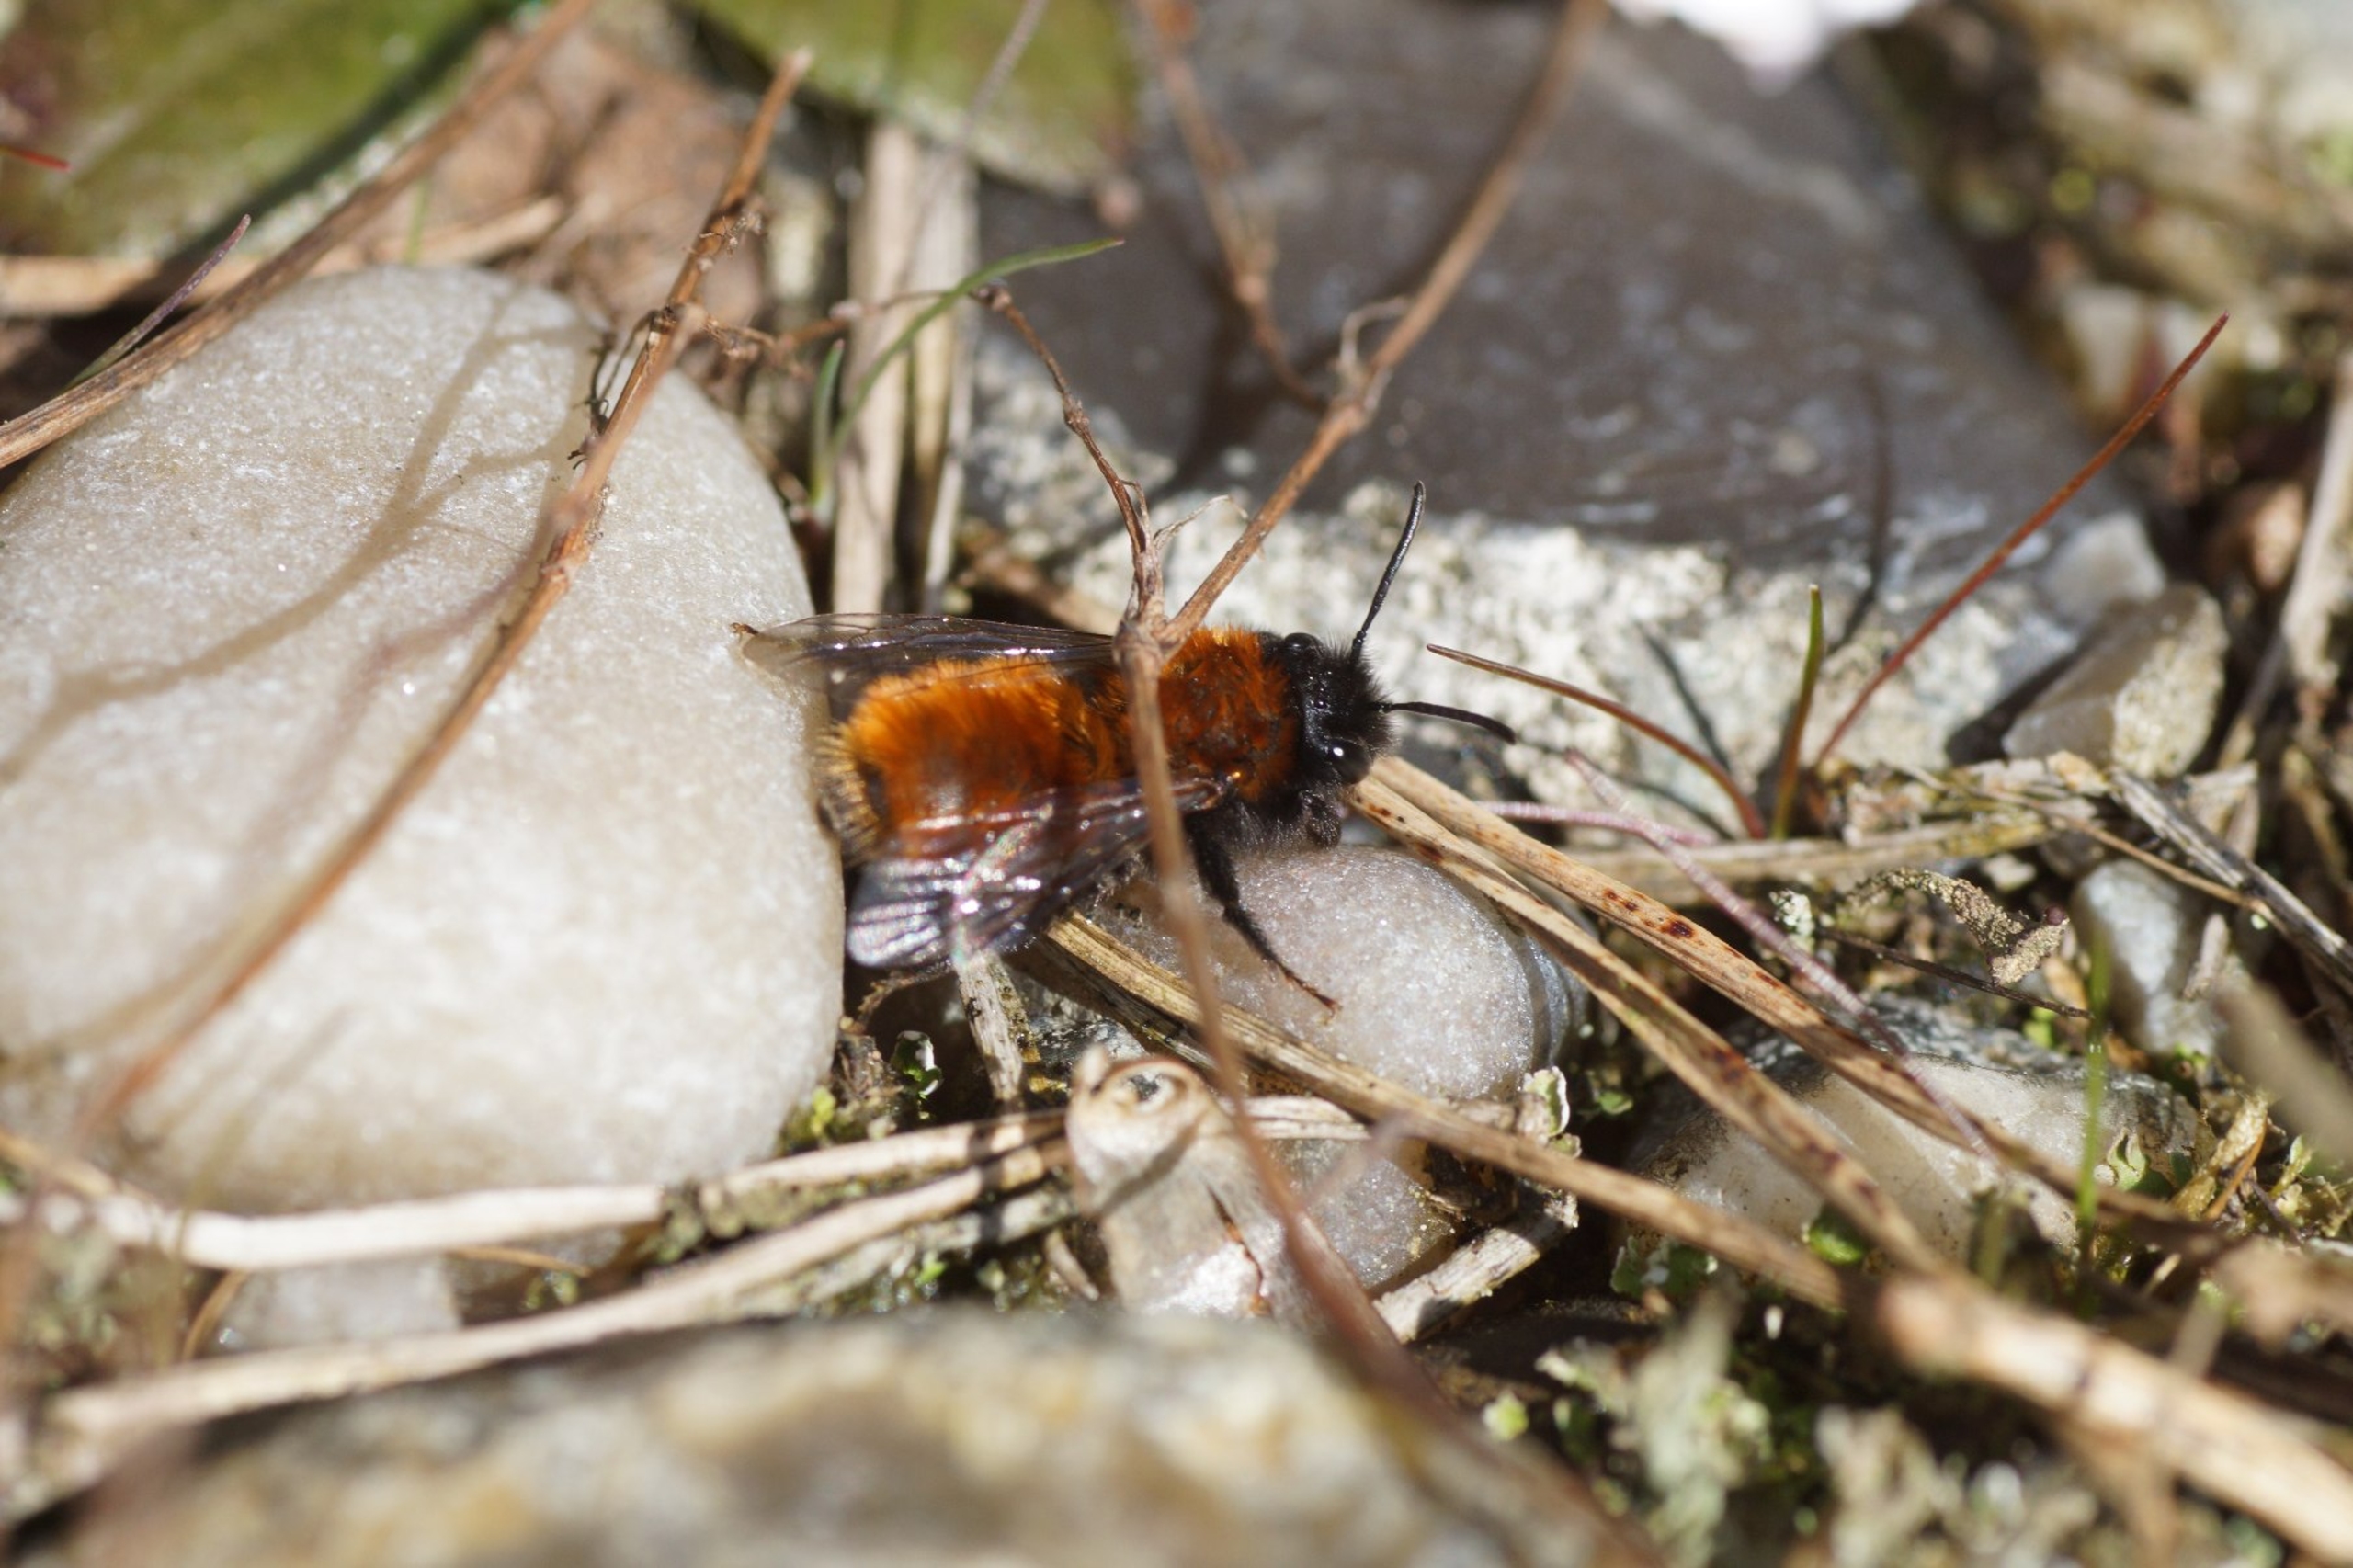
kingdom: Animalia
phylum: Arthropoda
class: Insecta
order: Hymenoptera
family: Andrenidae
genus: Andrena
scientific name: Andrena fulva
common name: Rødpelset jordbi
